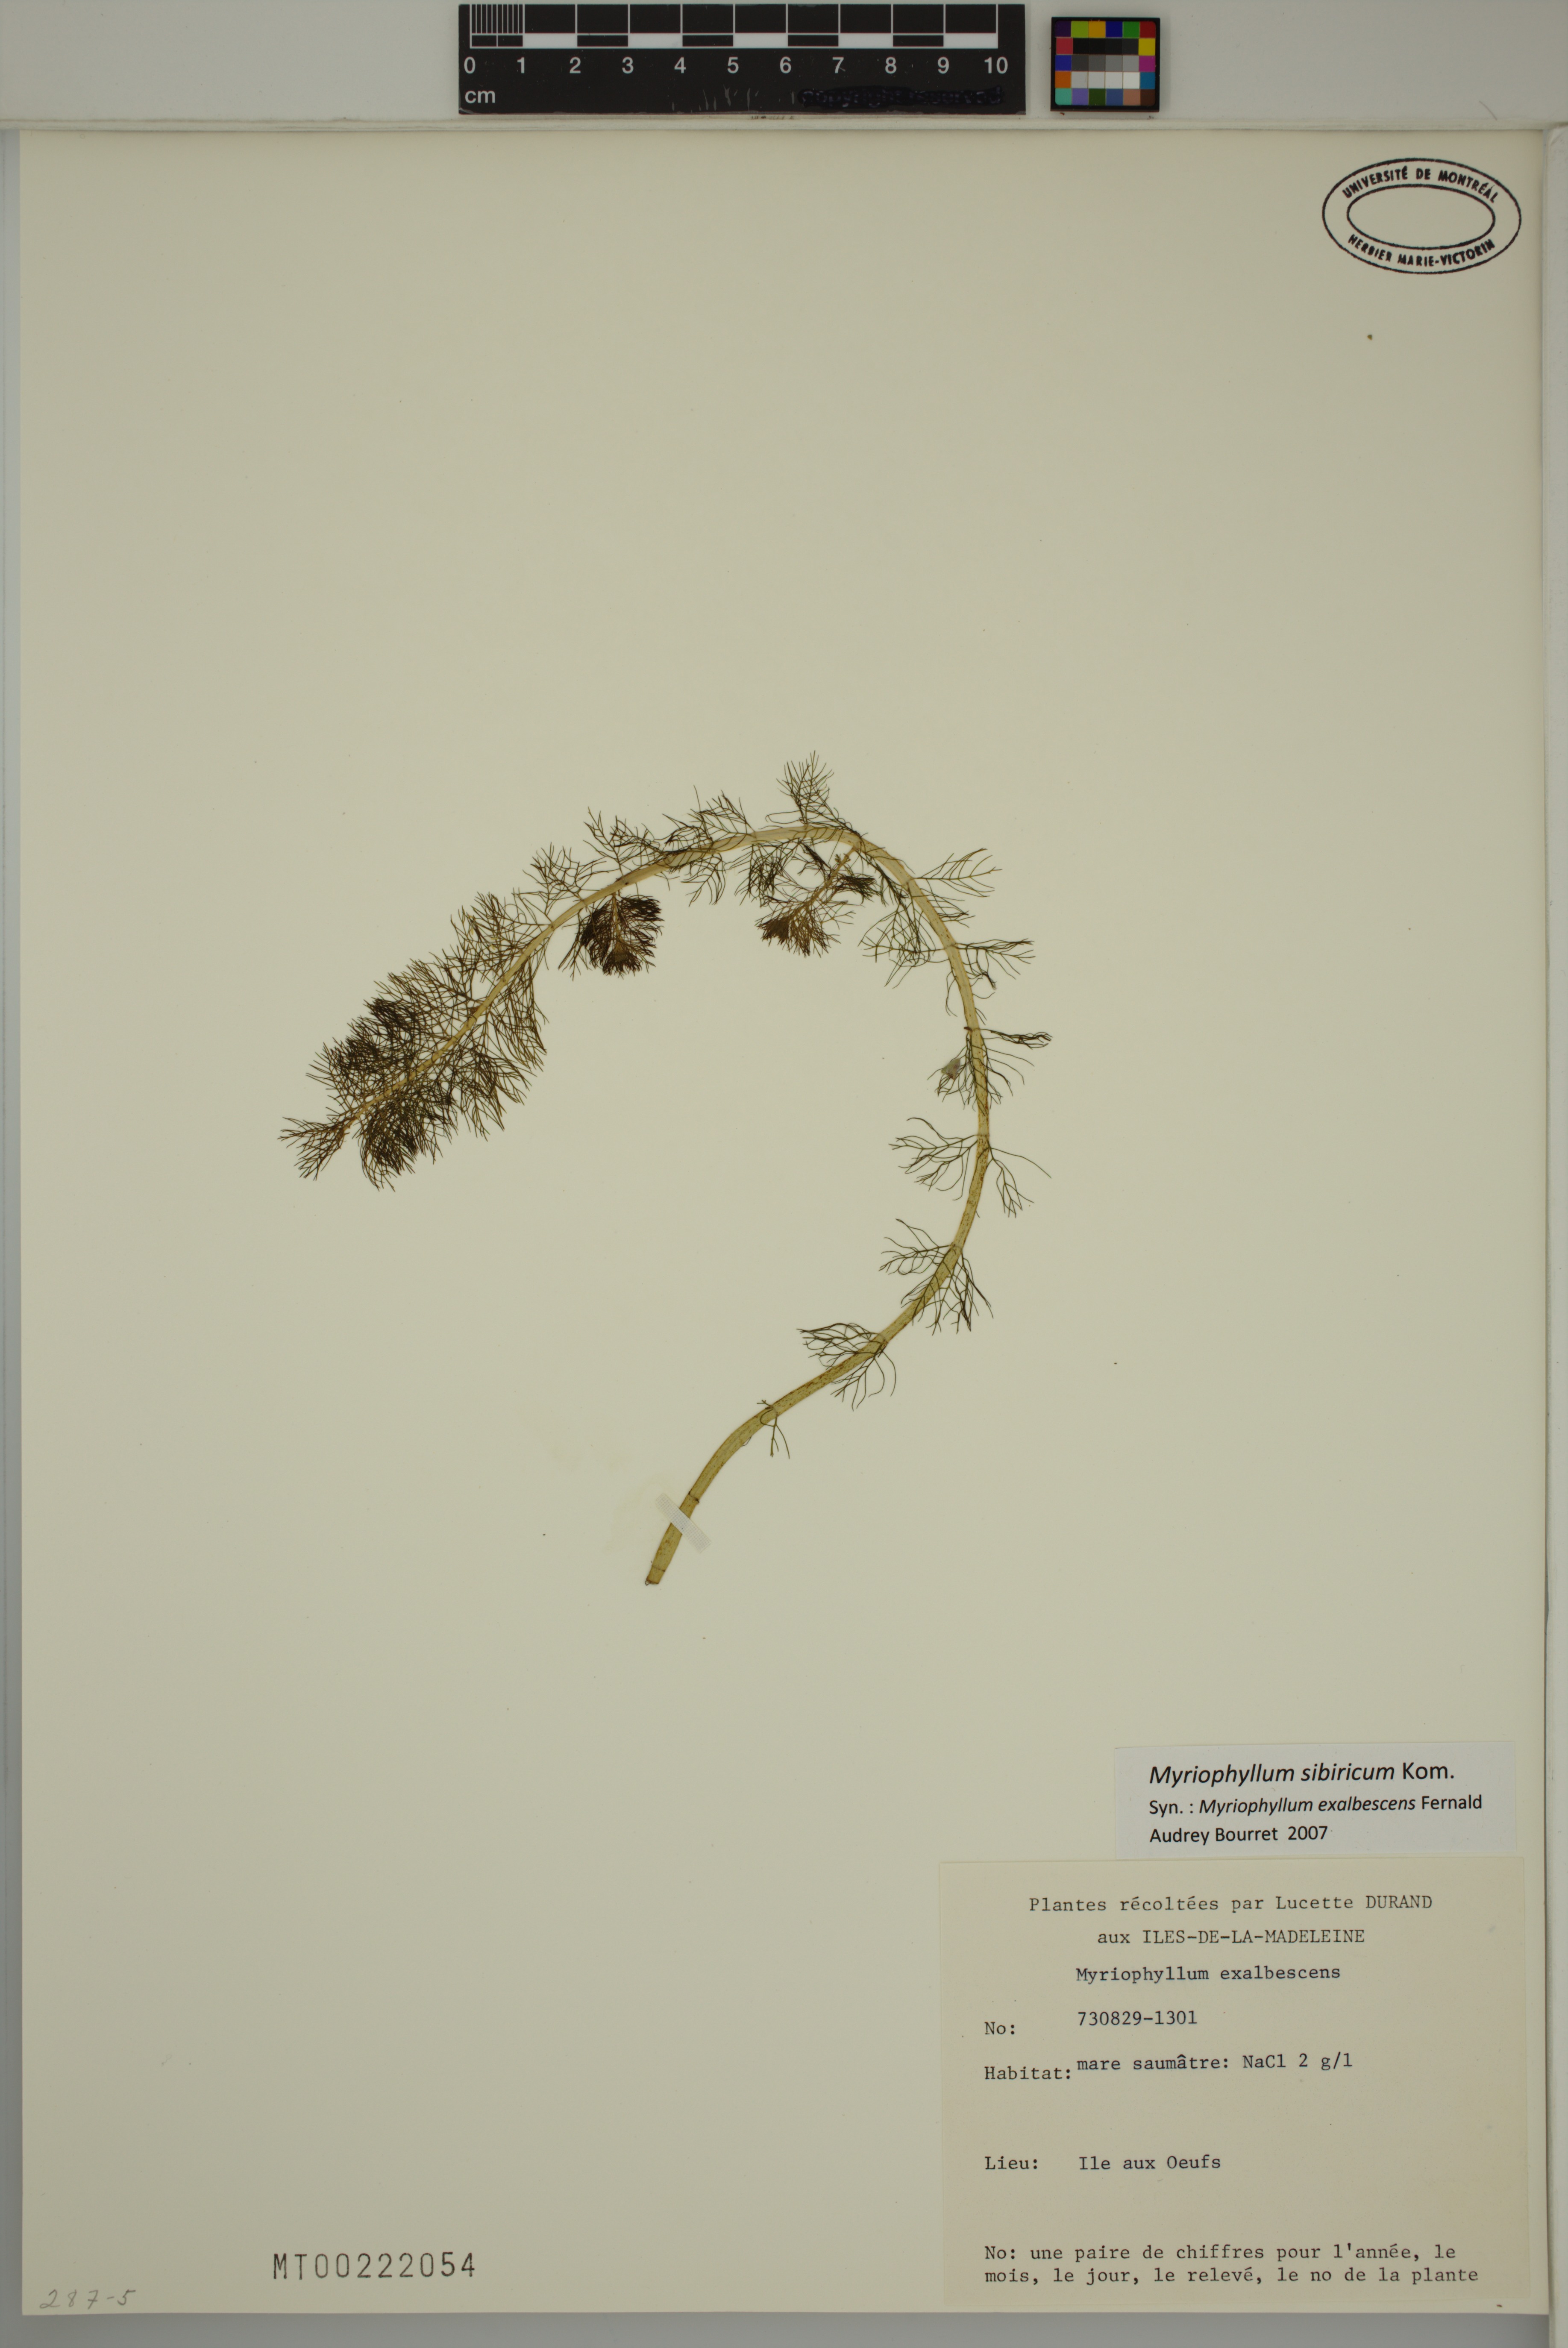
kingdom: Plantae
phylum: Tracheophyta
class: Magnoliopsida
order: Saxifragales
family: Haloragaceae
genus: Myriophyllum
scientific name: Myriophyllum sibiricum
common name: Siberian water-milfoil
